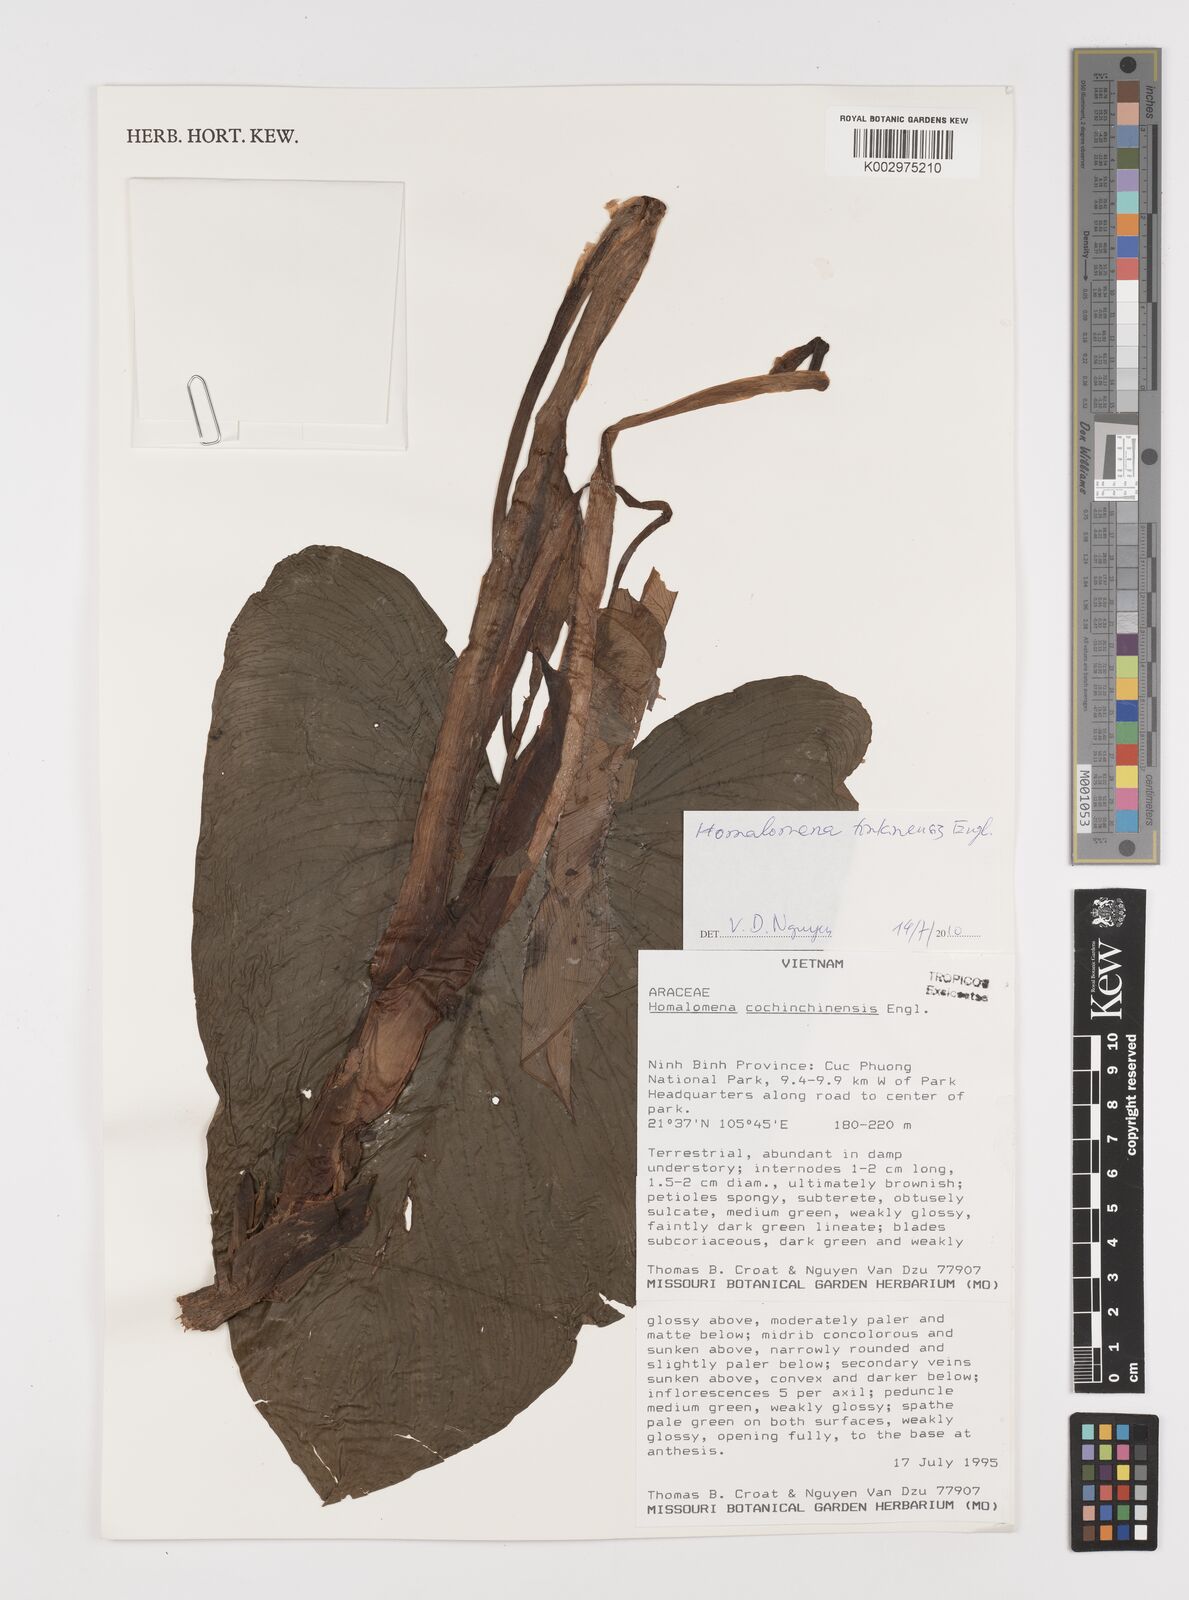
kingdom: Plantae
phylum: Tracheophyta
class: Liliopsida
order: Alismatales
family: Araceae
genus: Homalomena
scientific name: Homalomena cochinchinensis
